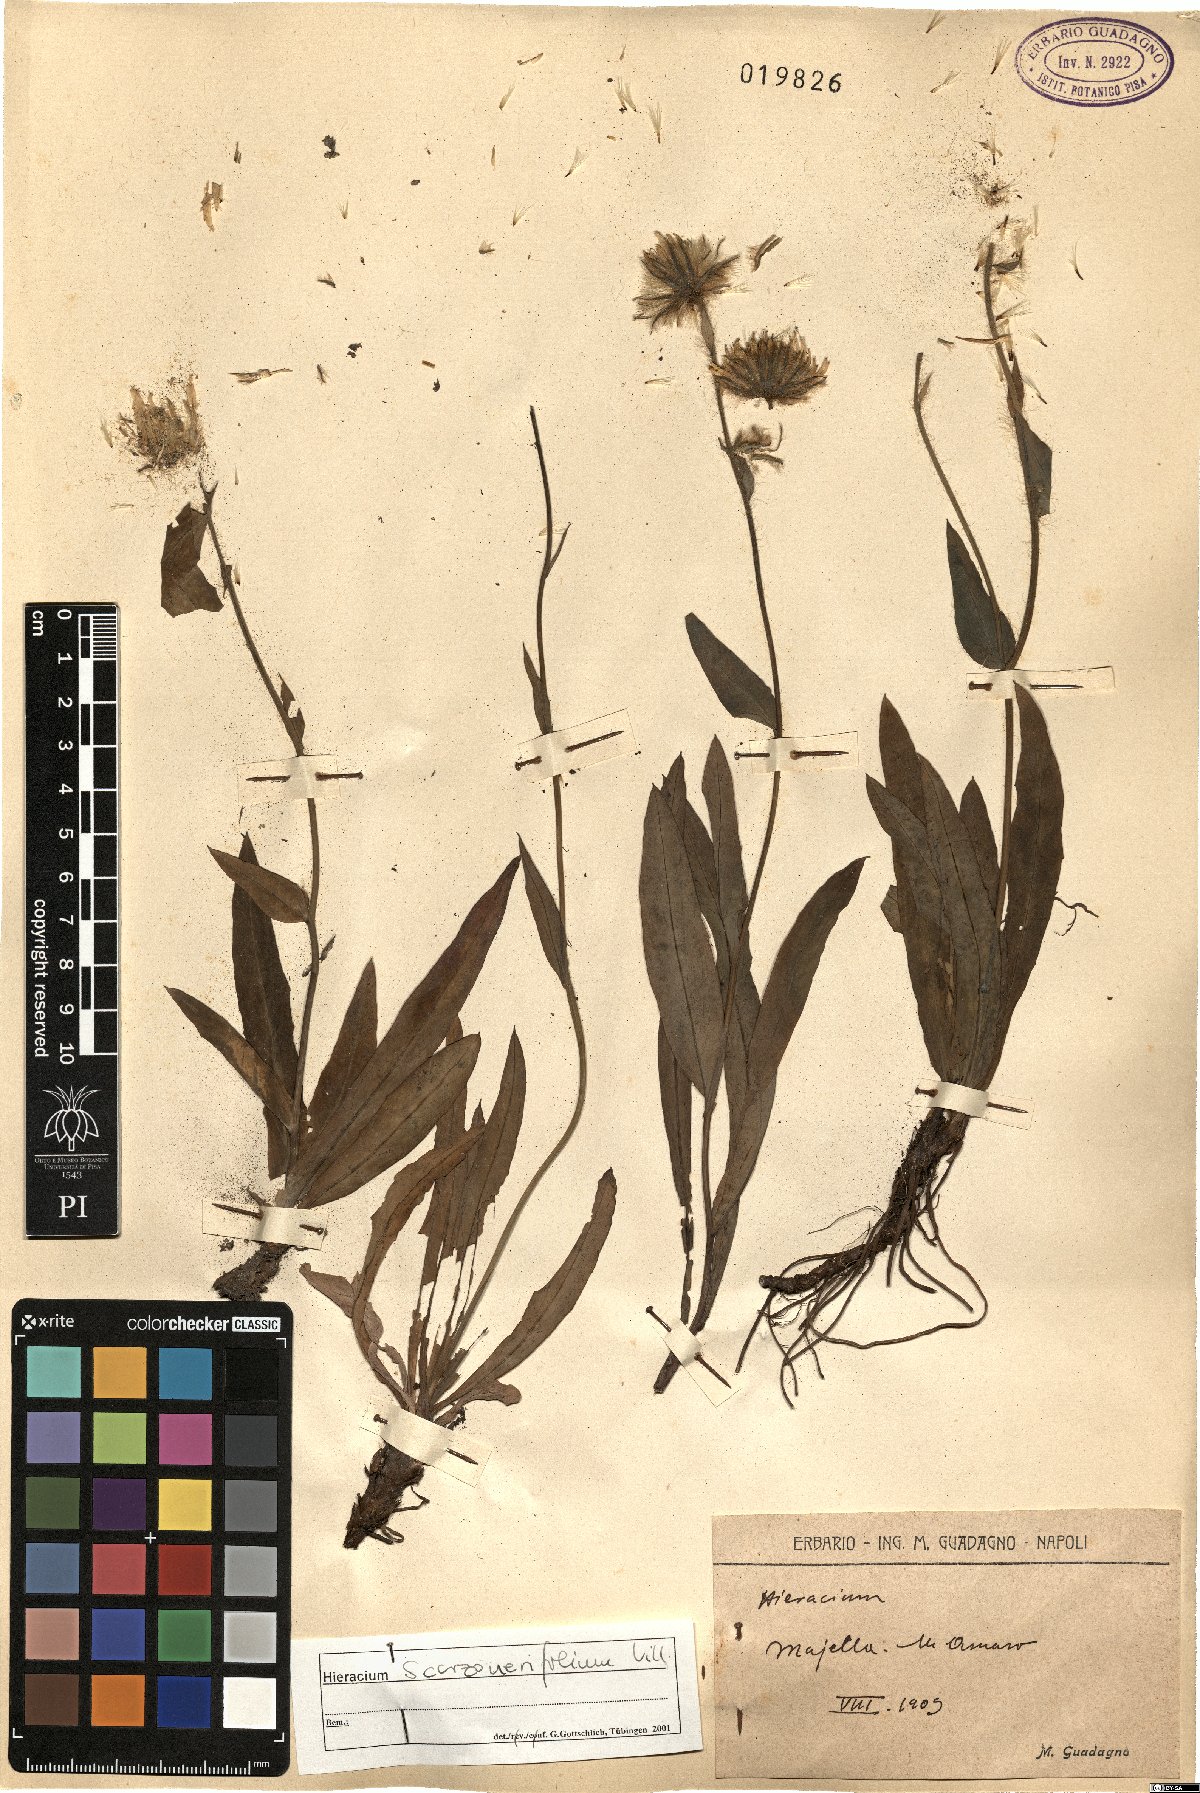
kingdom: Plantae
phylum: Tracheophyta
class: Magnoliopsida
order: Asterales
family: Asteraceae
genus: Hieracium
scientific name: Hieracium scorzonerifolium
